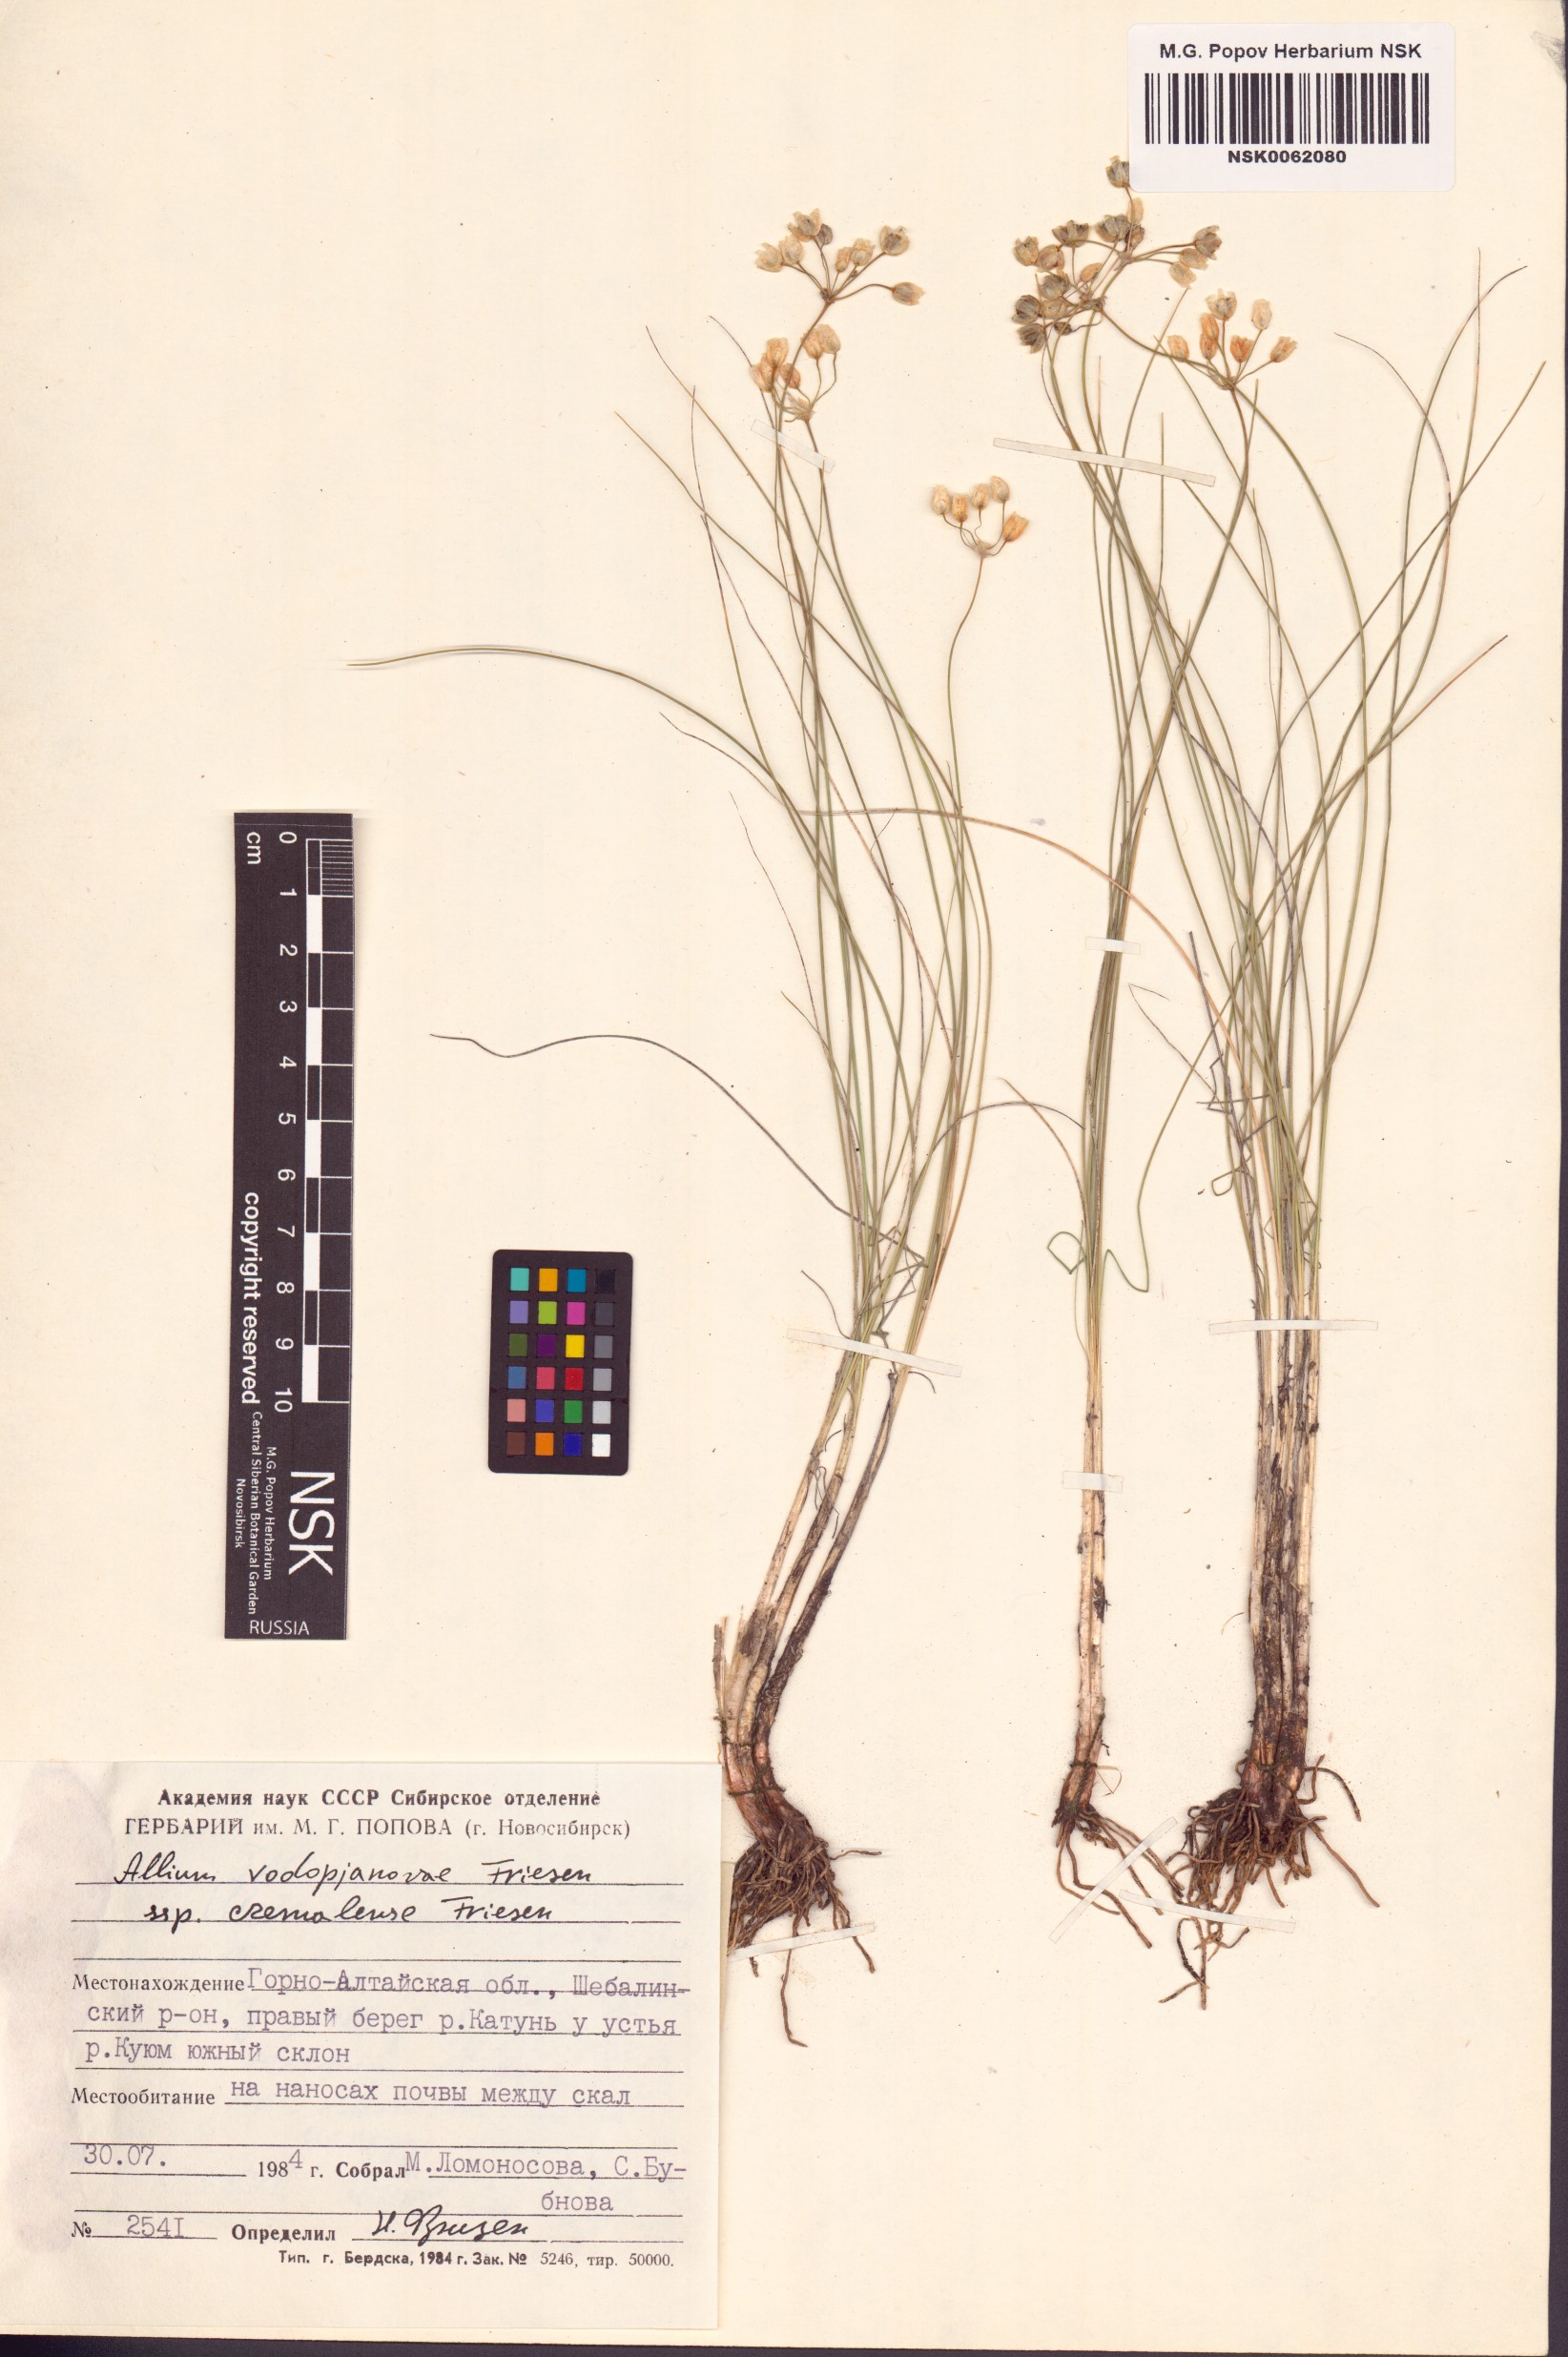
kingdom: Plantae
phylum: Tracheophyta
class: Liliopsida
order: Asparagales
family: Amaryllidaceae
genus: Allium
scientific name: Allium vodopjanovae
